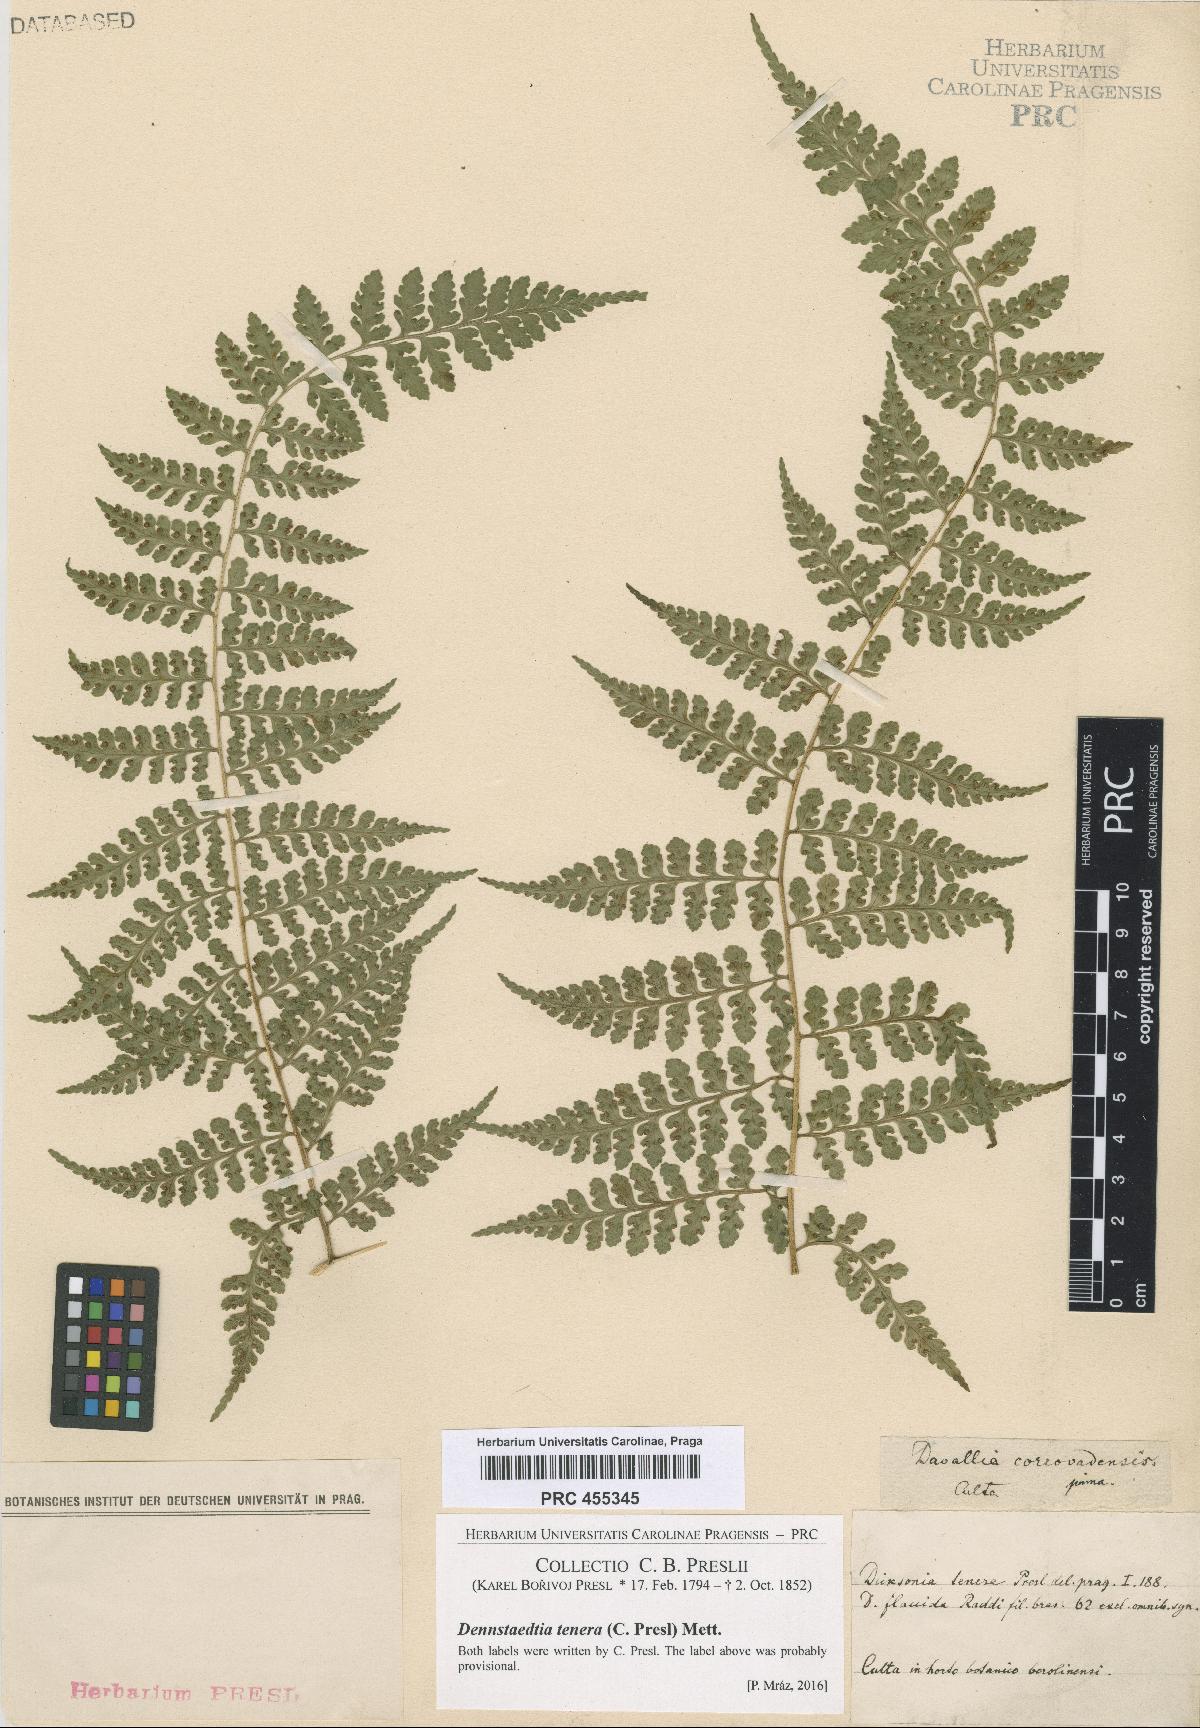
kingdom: Plantae
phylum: Tracheophyta
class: Polypodiopsida
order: Polypodiales
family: Dennstaedtiaceae
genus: Mucura
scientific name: Mucura globulifera
